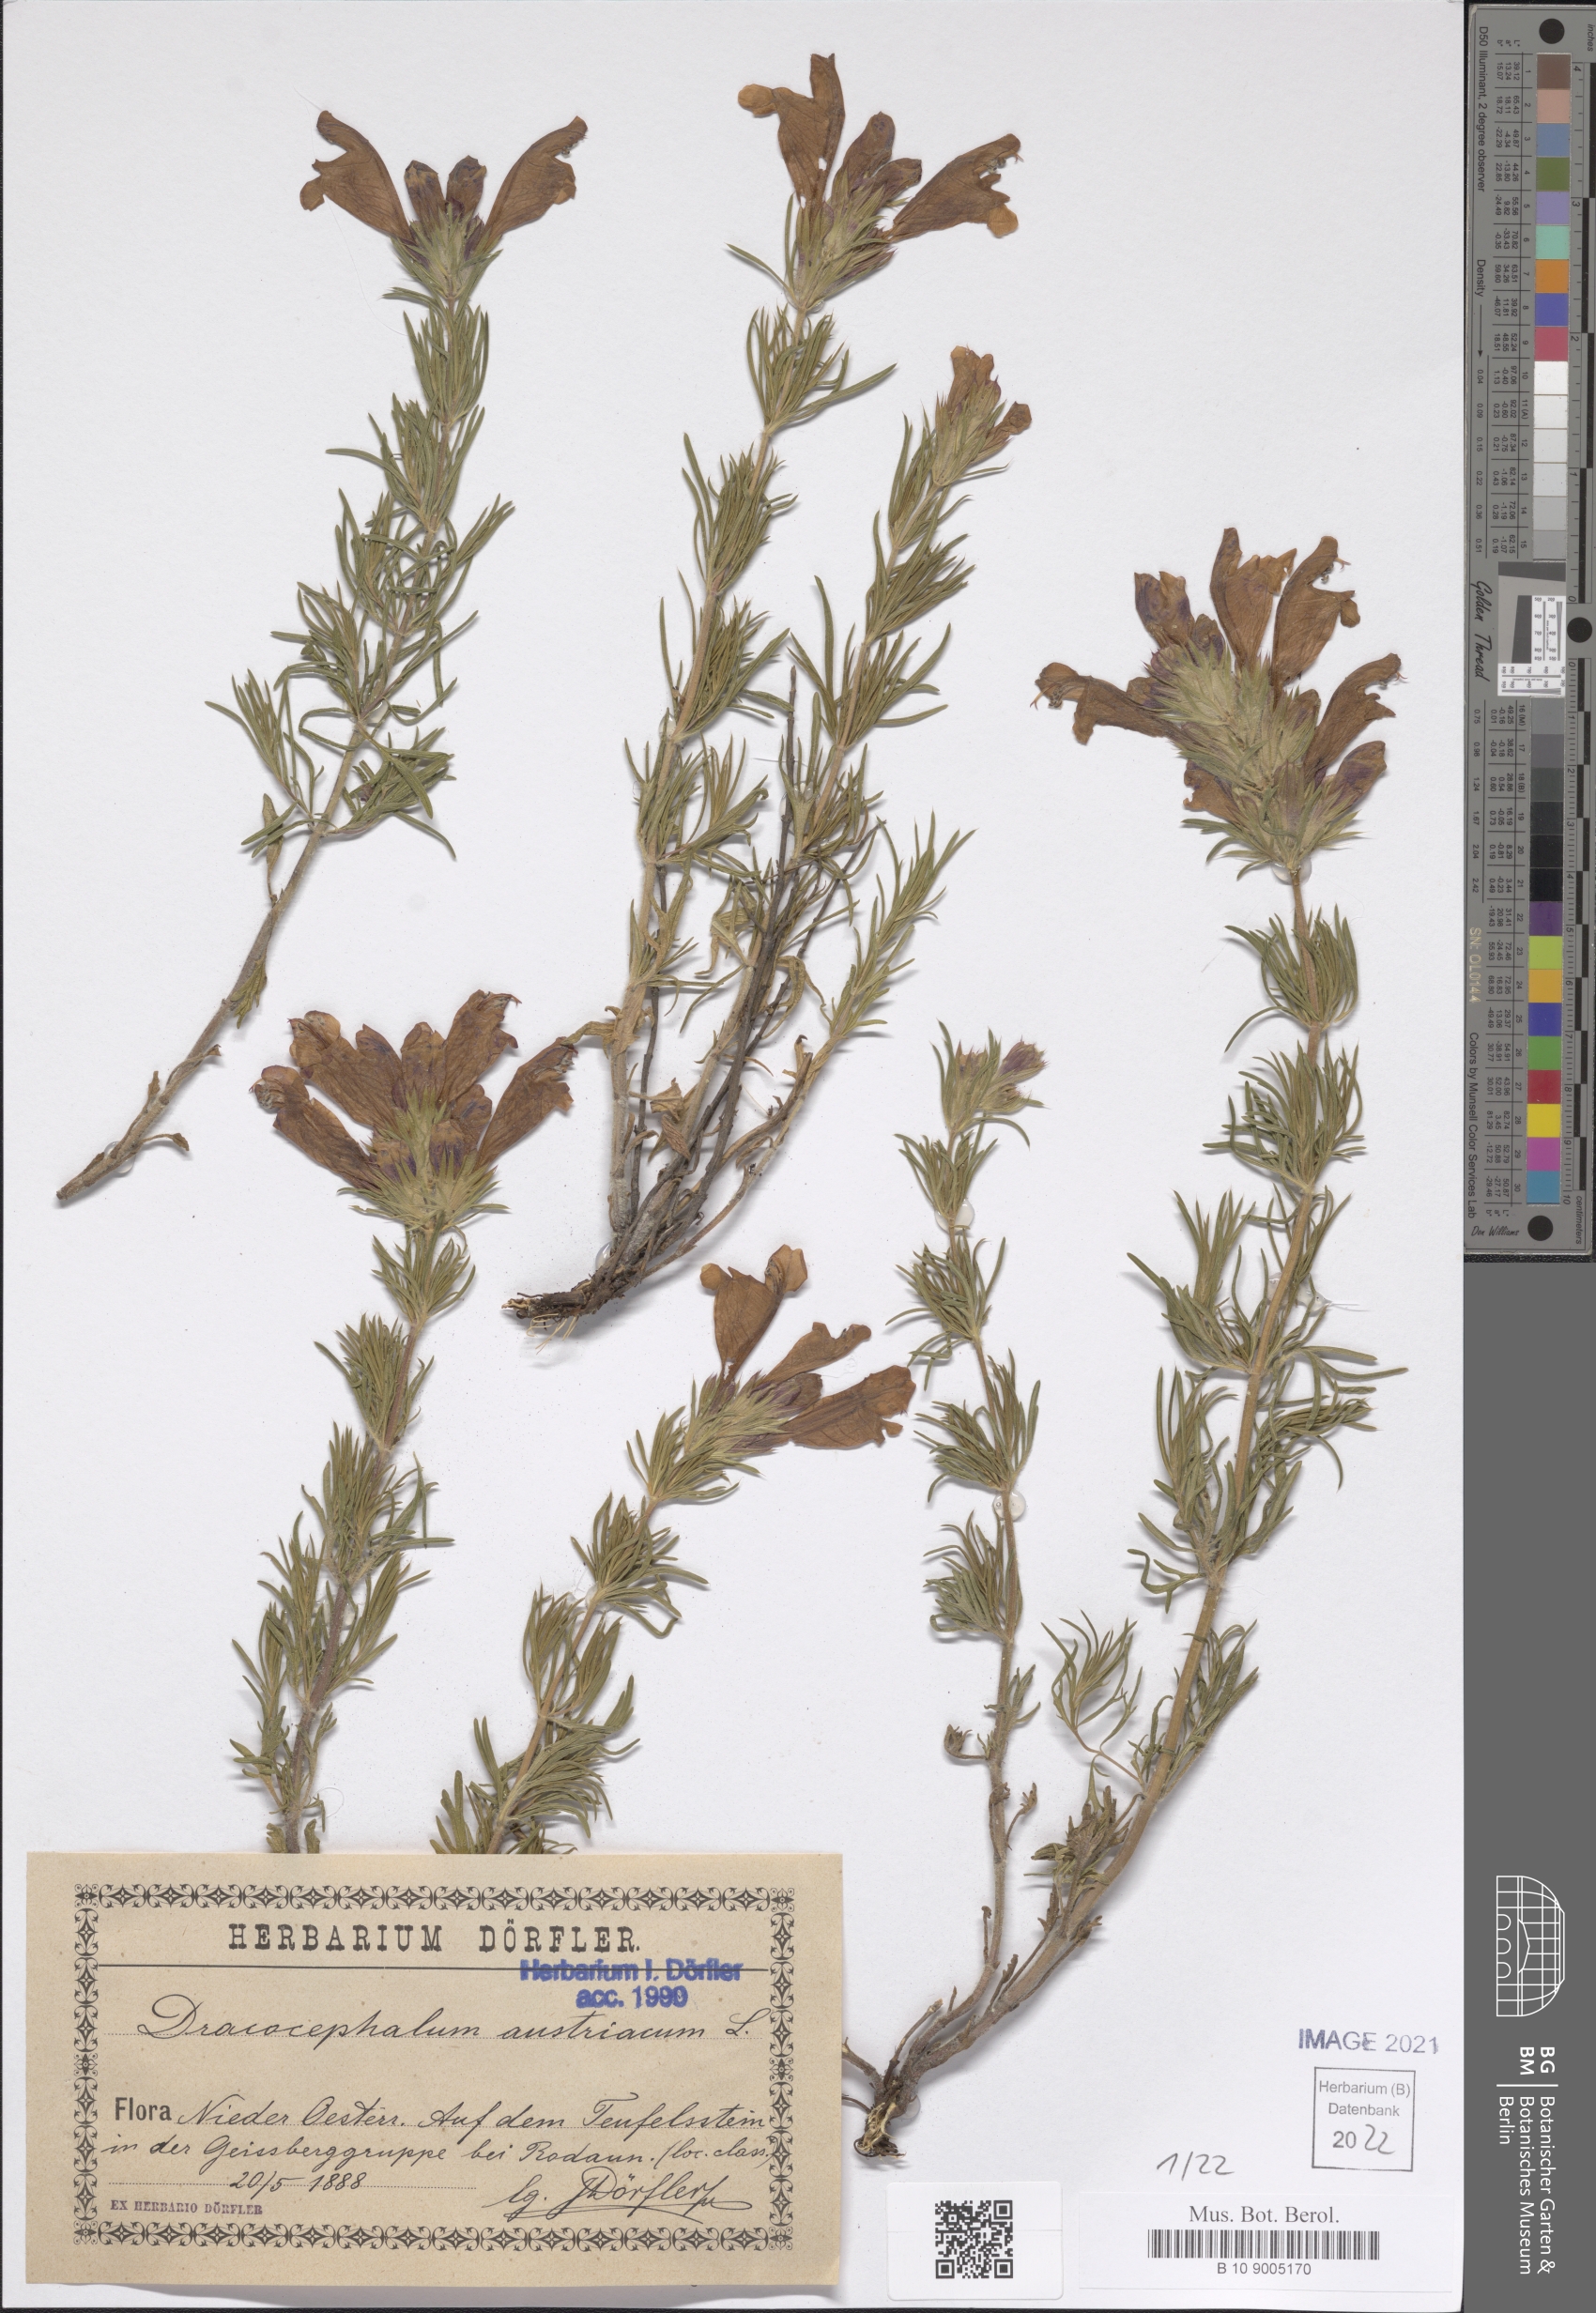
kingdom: Plantae
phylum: Tracheophyta
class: Magnoliopsida
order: Lamiales
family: Lamiaceae
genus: Dracocephalum
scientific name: Dracocephalum austriacum
